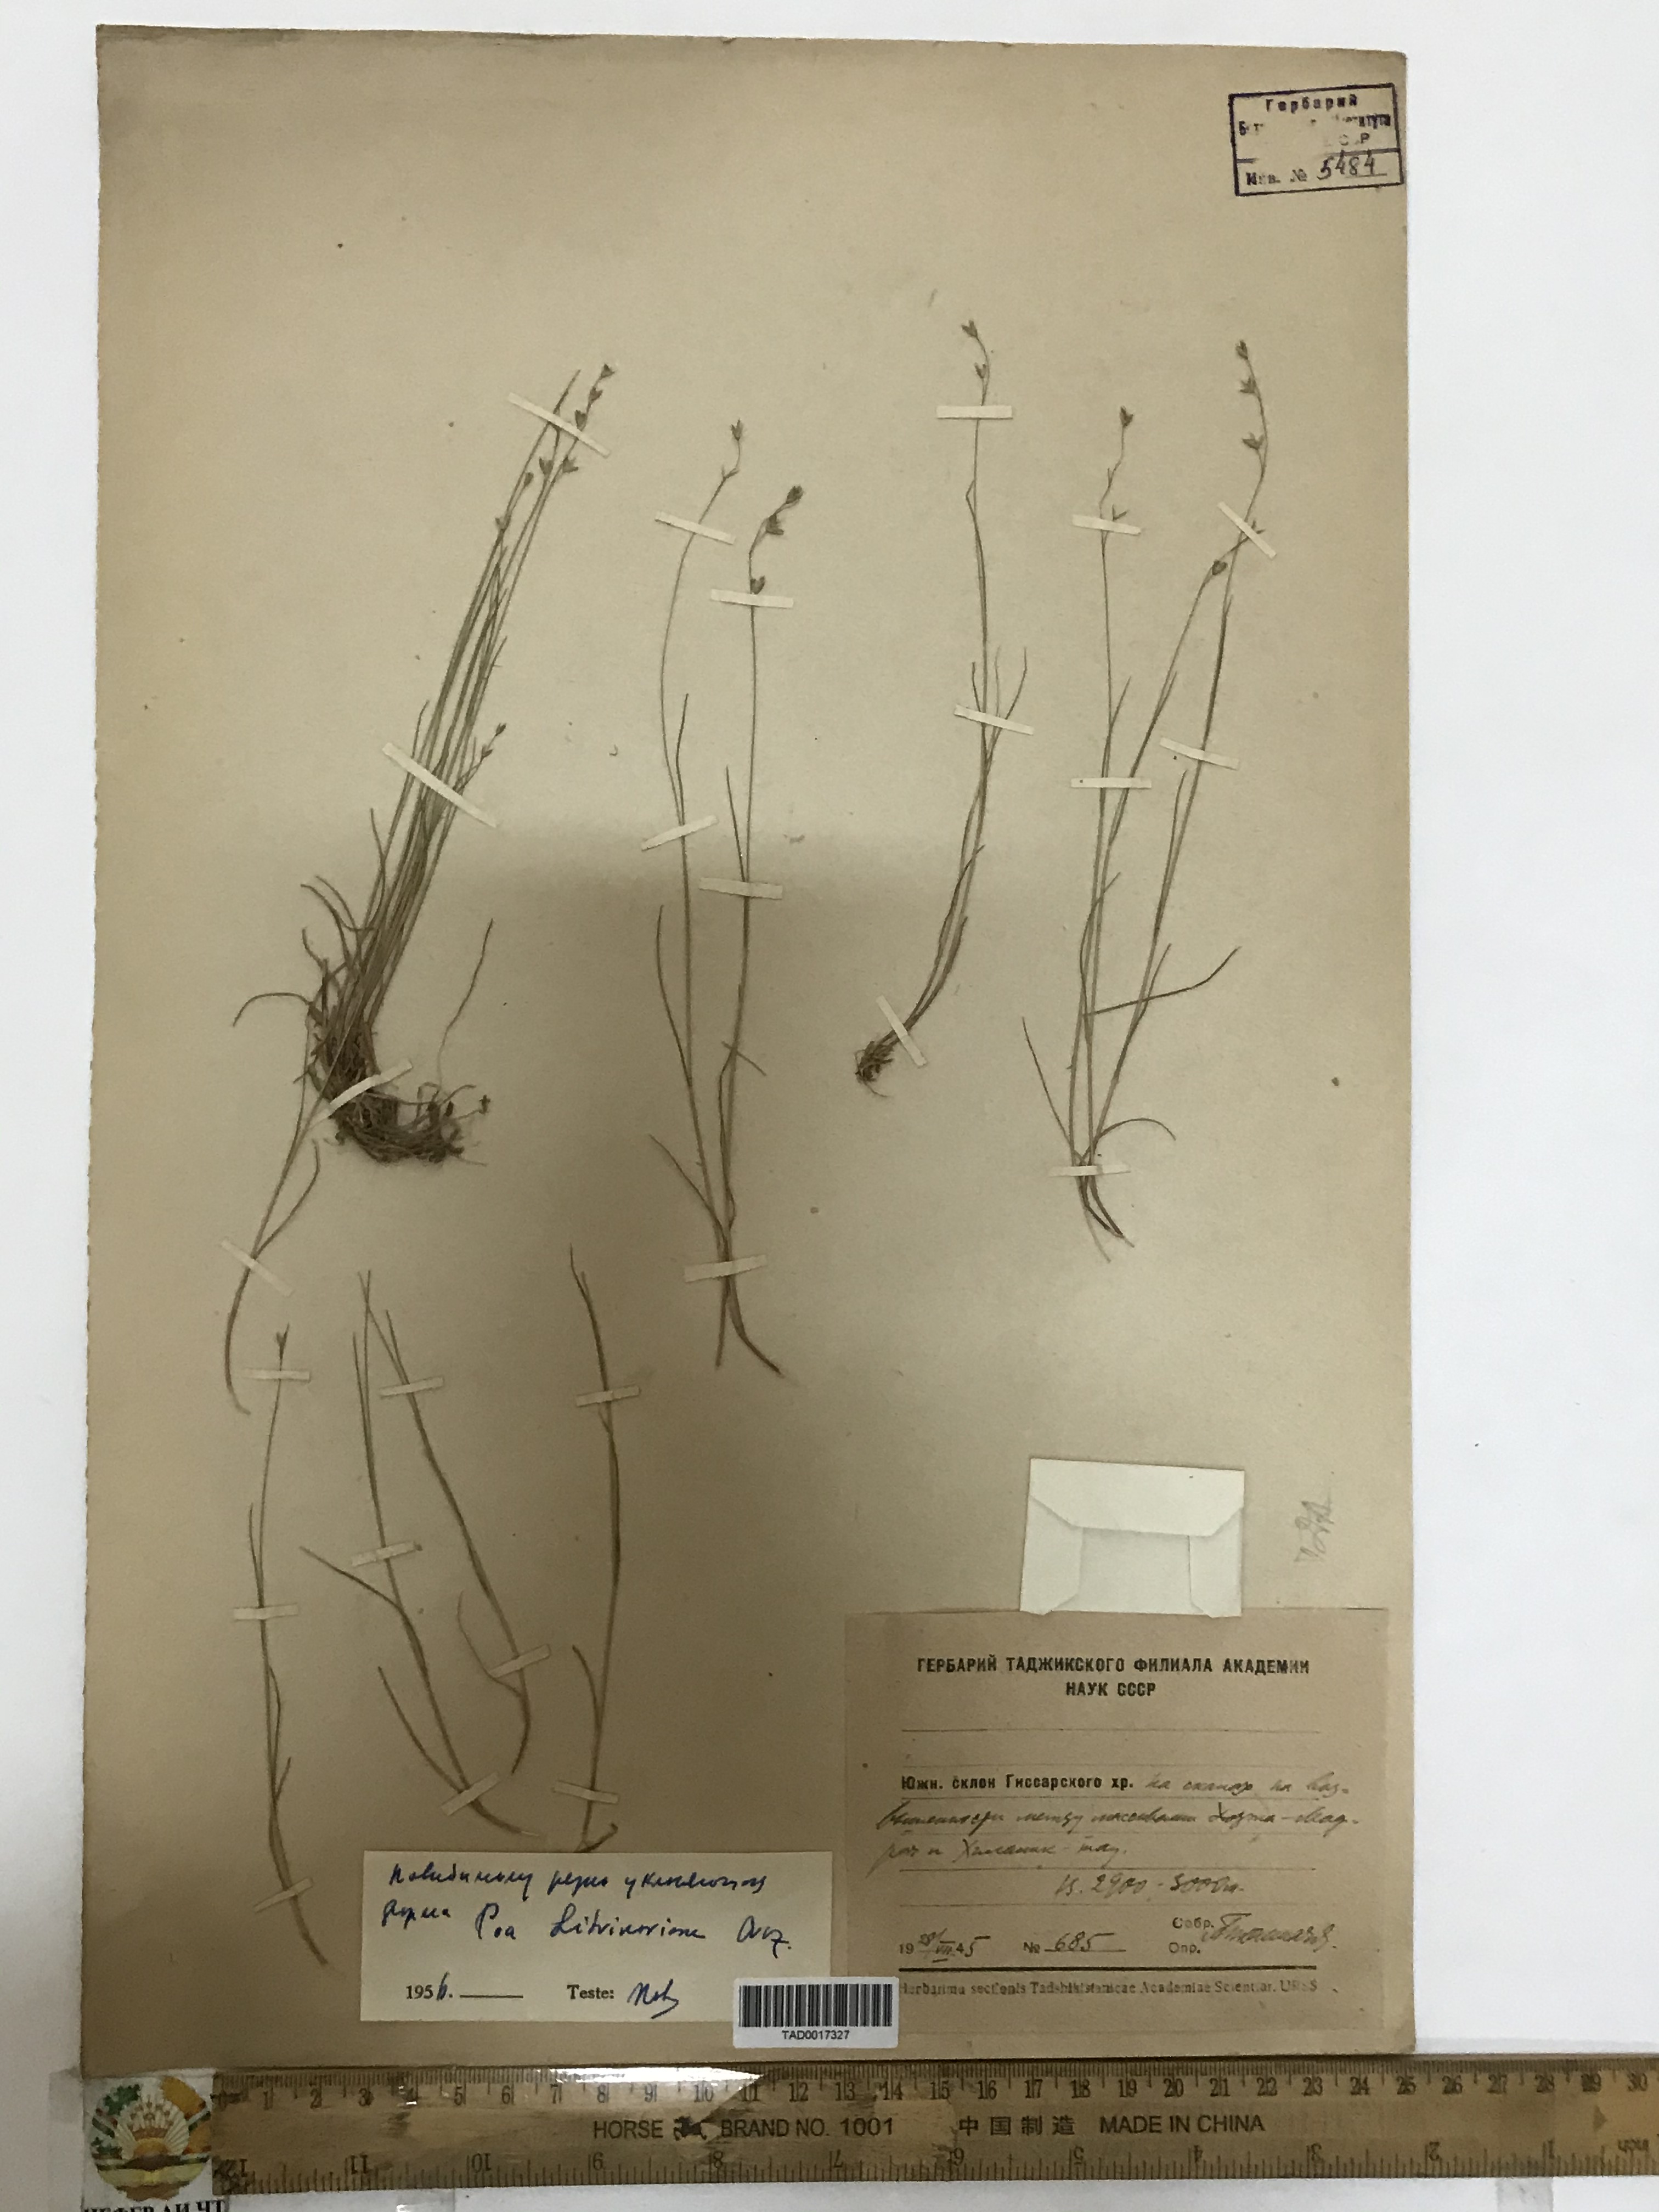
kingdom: Plantae
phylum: Tracheophyta
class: Liliopsida
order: Poales
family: Poaceae
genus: Poa
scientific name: Poa glauca
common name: Glaucous bluegrass
